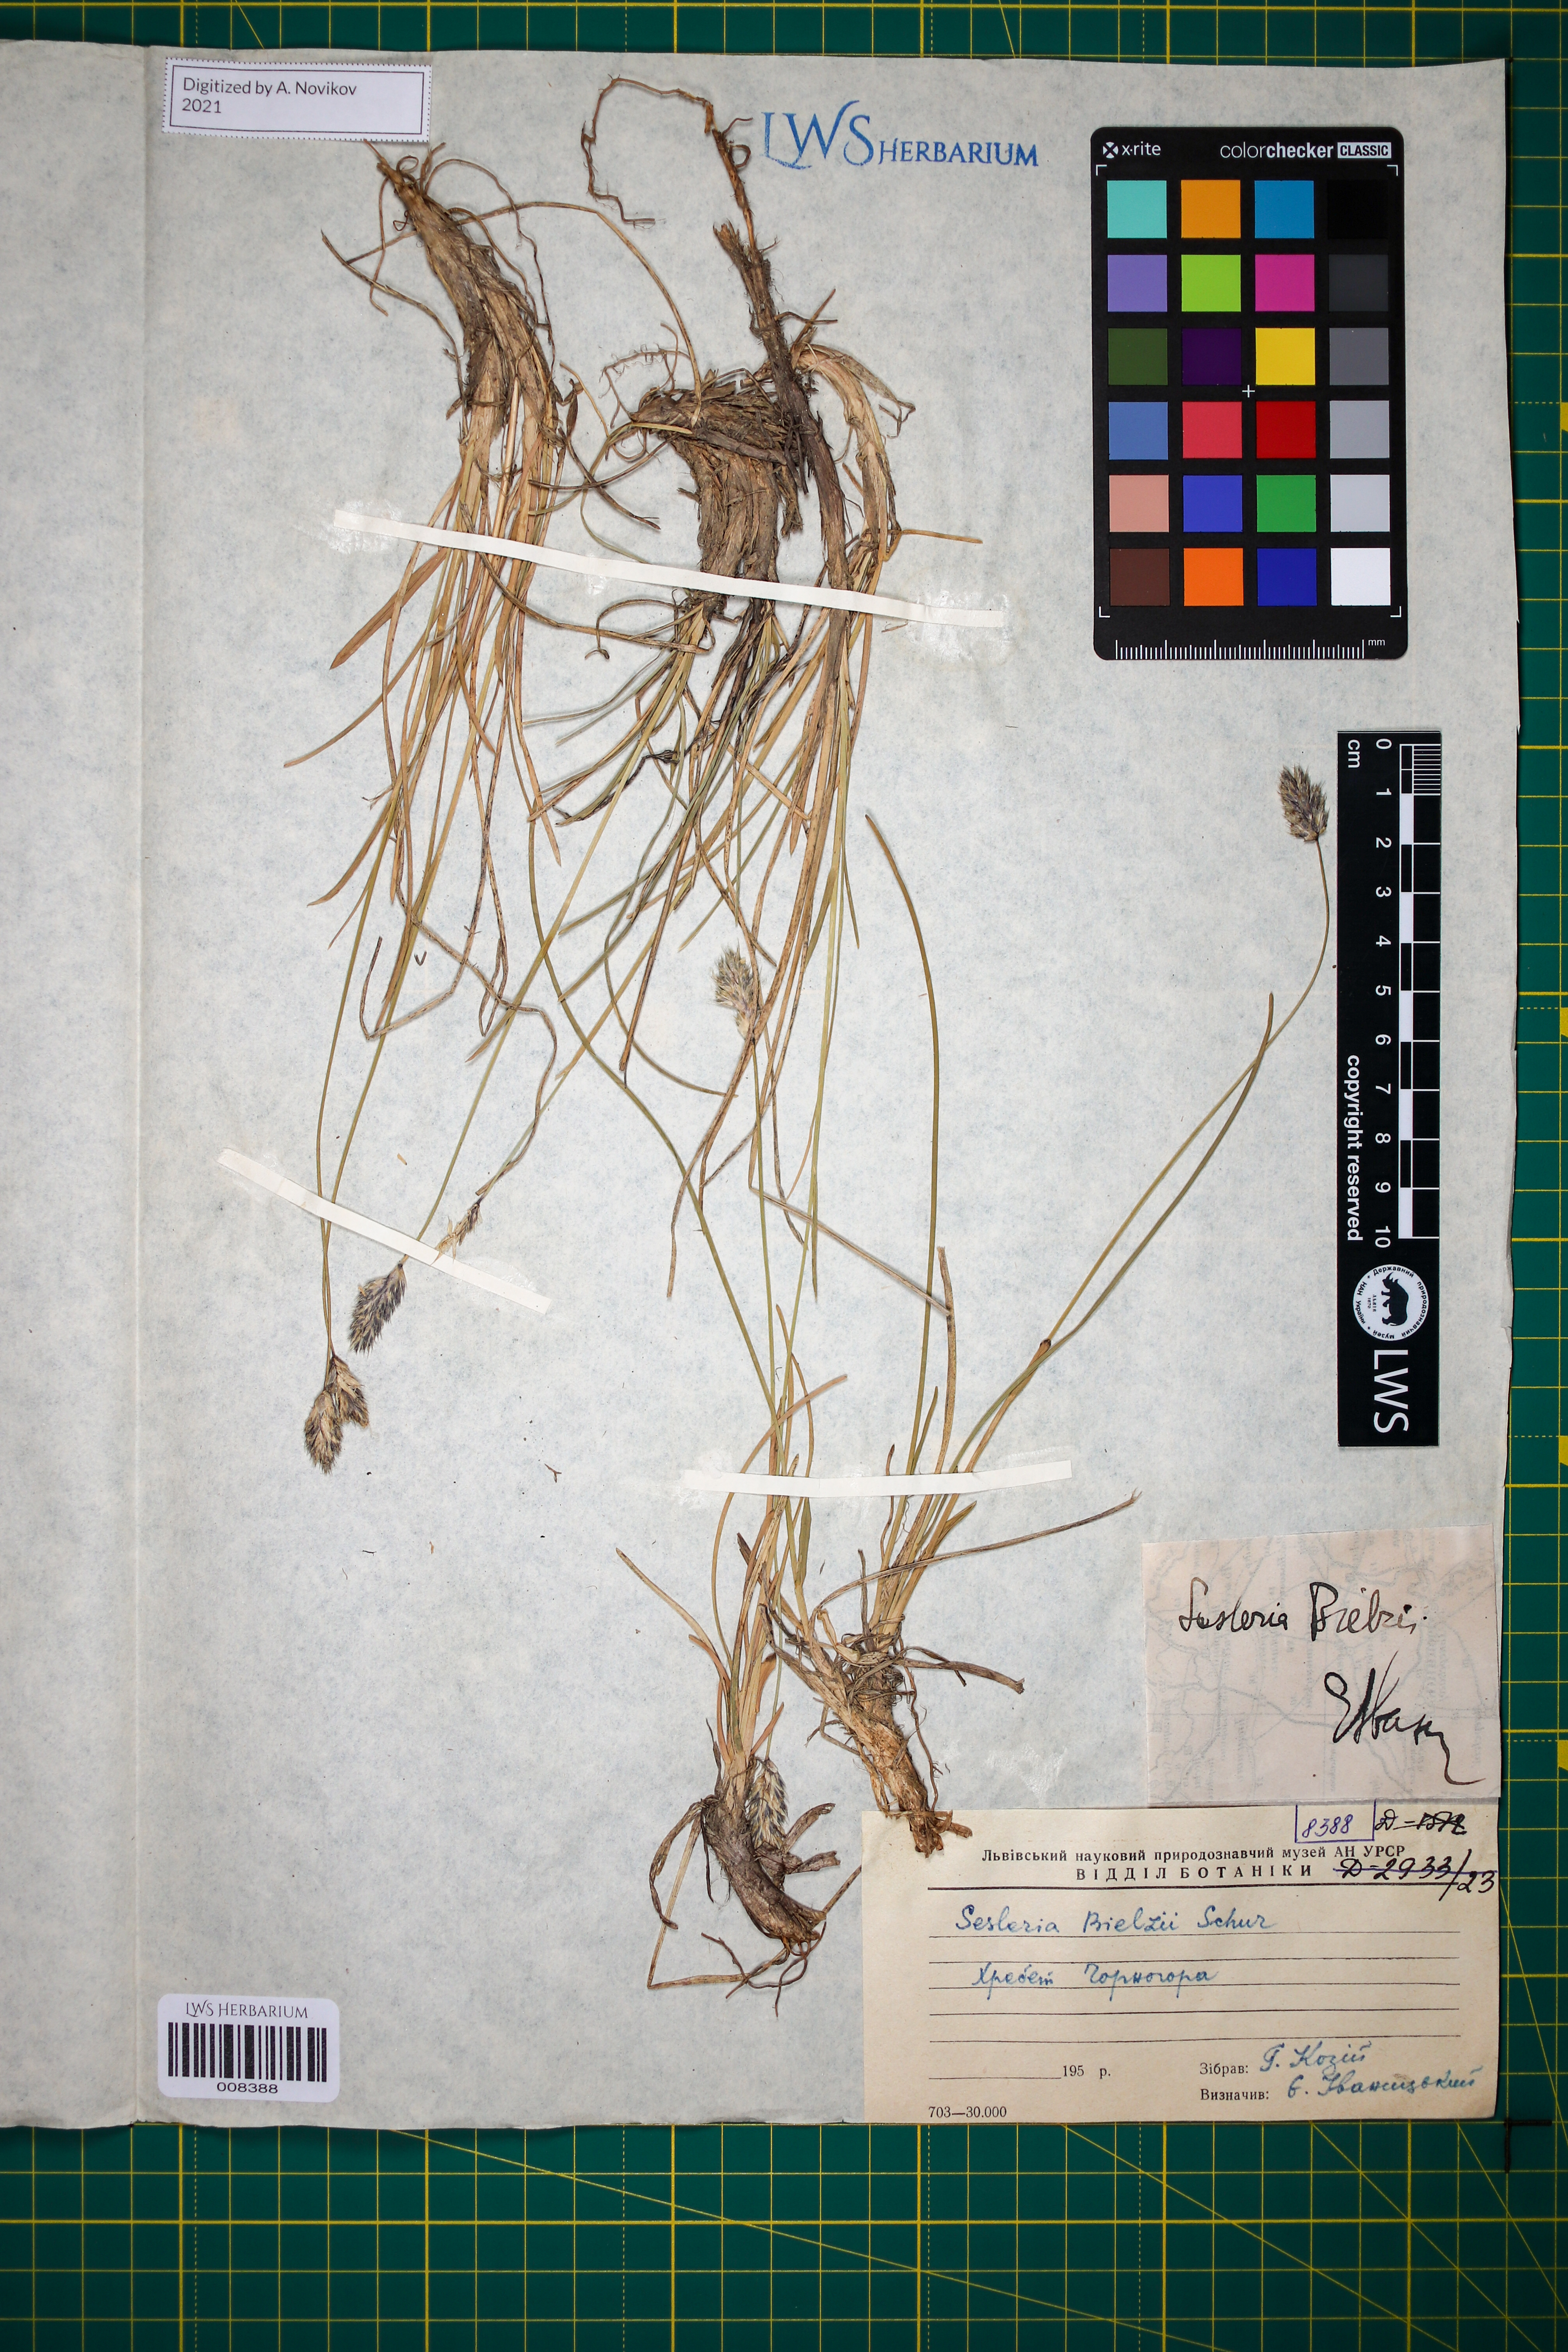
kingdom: Plantae
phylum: Tracheophyta
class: Liliopsida
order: Poales
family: Poaceae
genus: Sesleria
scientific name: Sesleria bielzii
